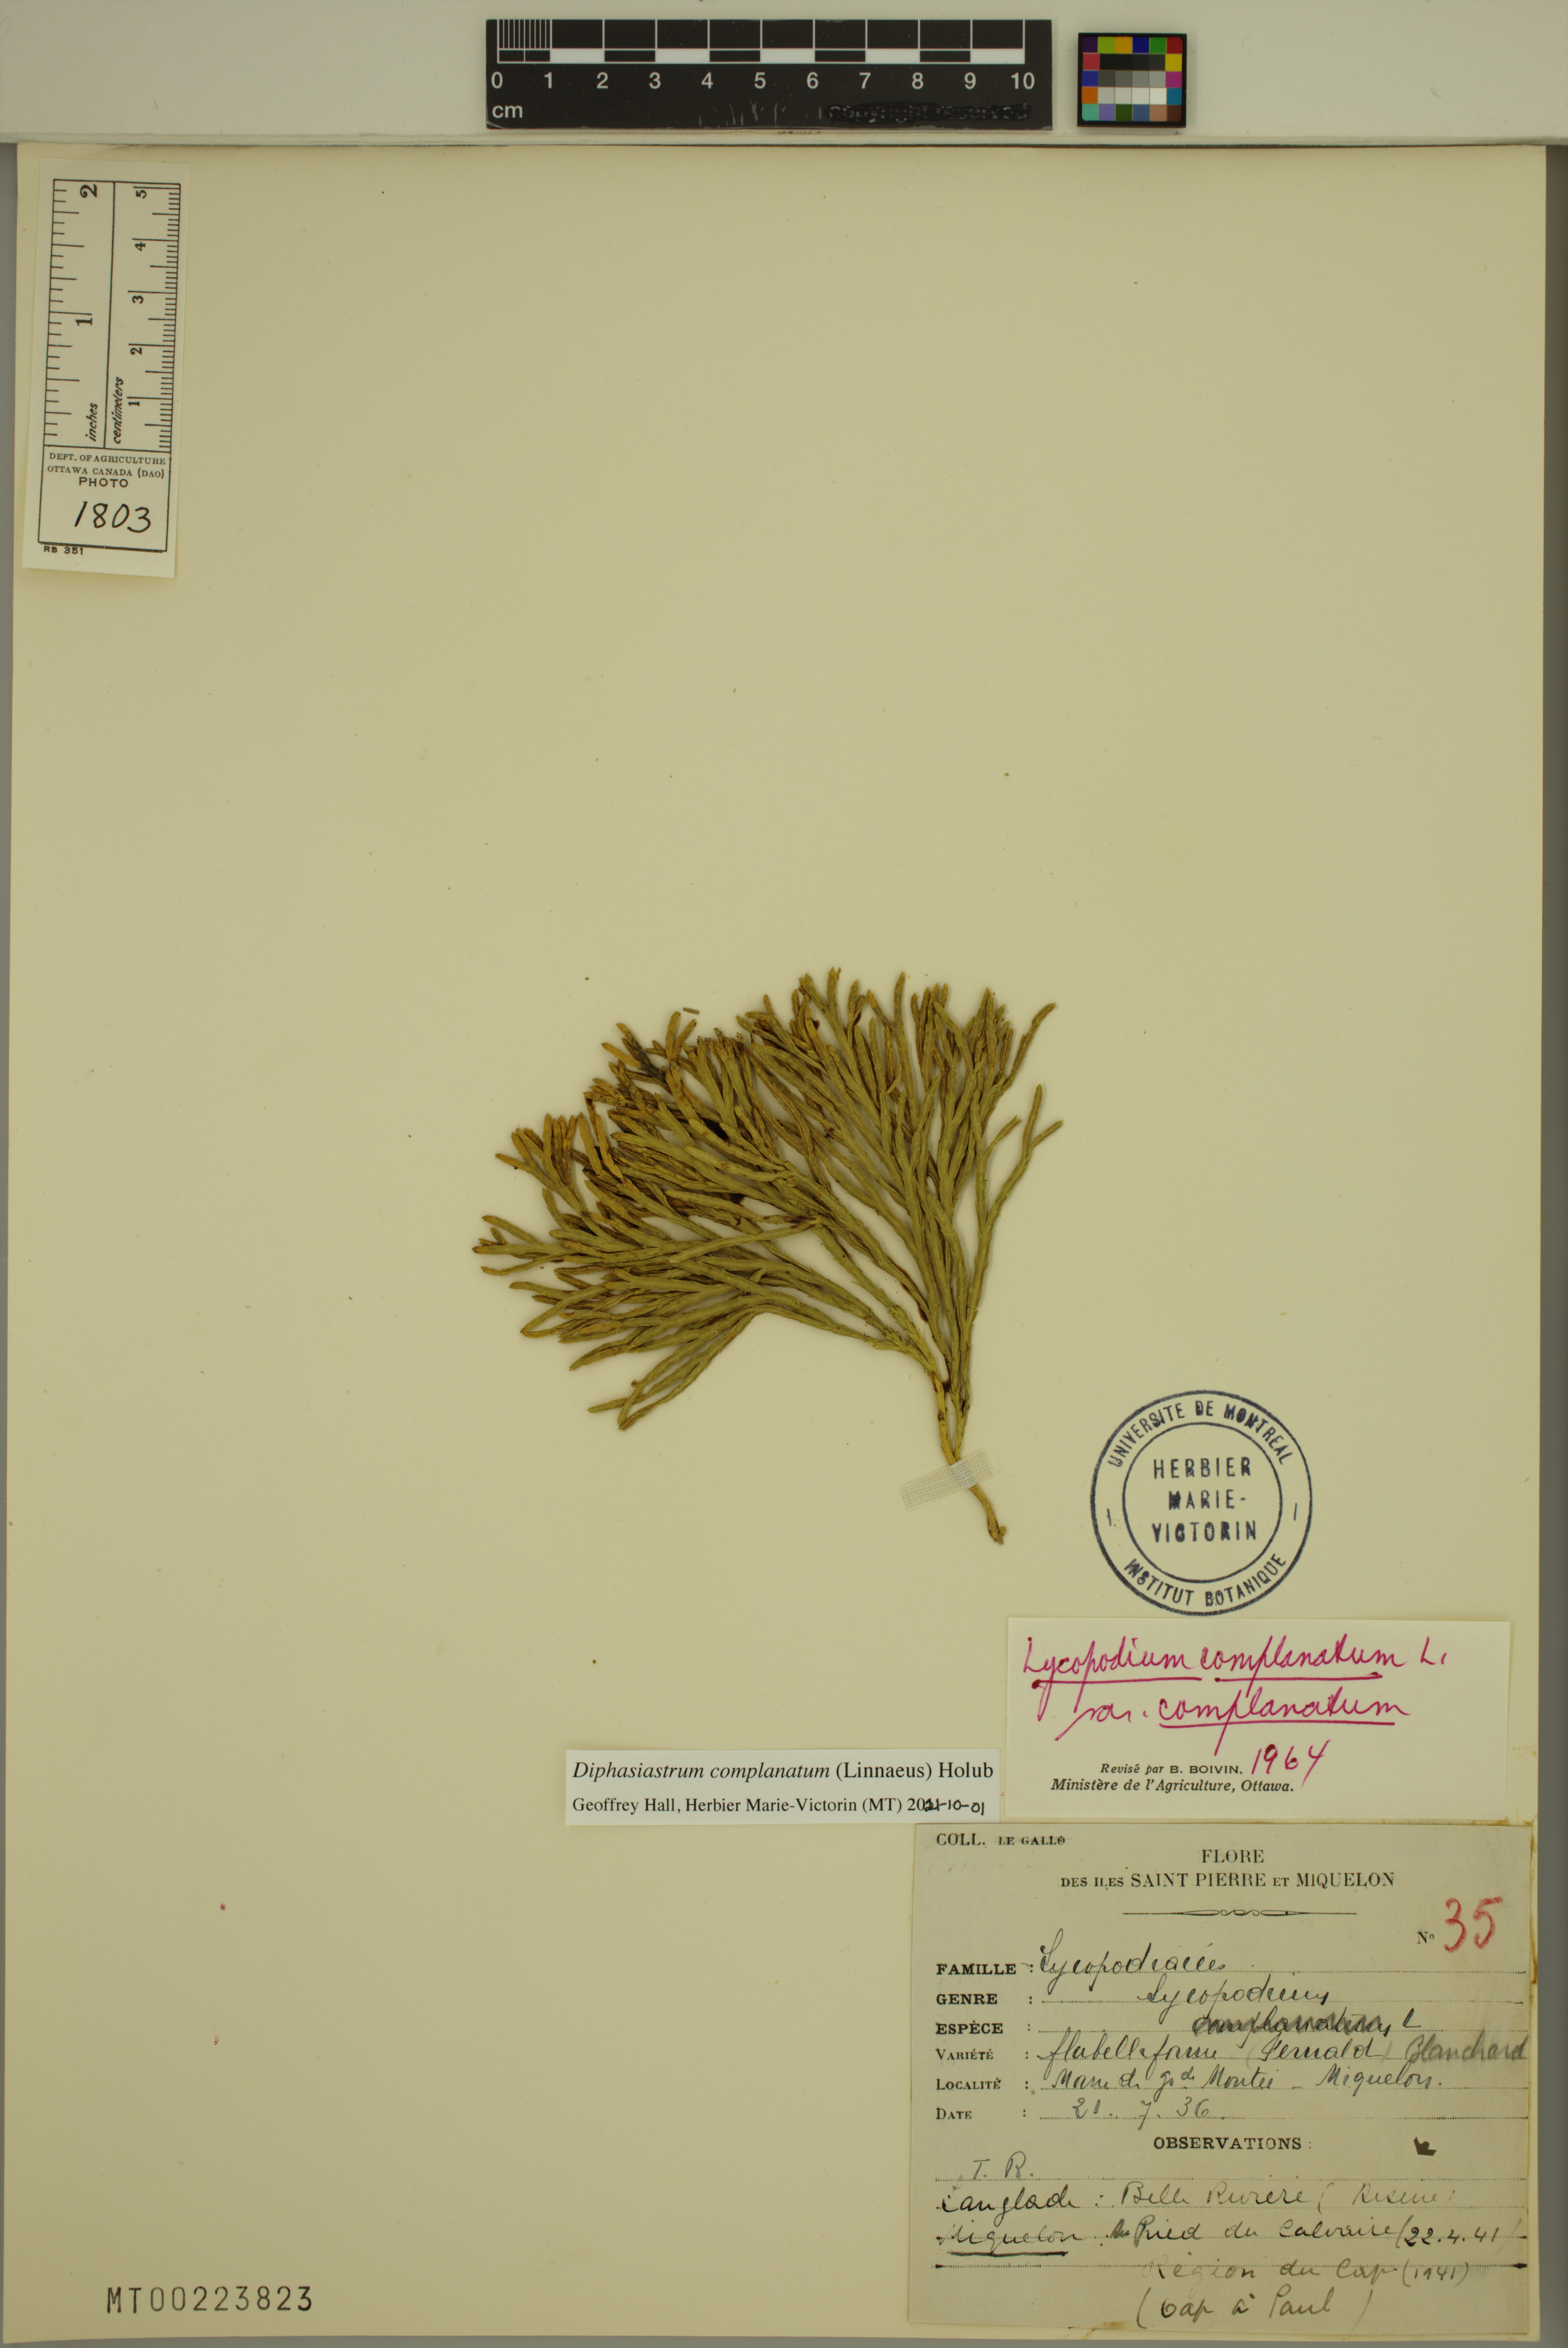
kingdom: Plantae
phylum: Tracheophyta
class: Lycopodiopsida
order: Lycopodiales
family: Lycopodiaceae
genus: Diphasiastrum
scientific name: Diphasiastrum complanatum
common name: Northern running-pine
